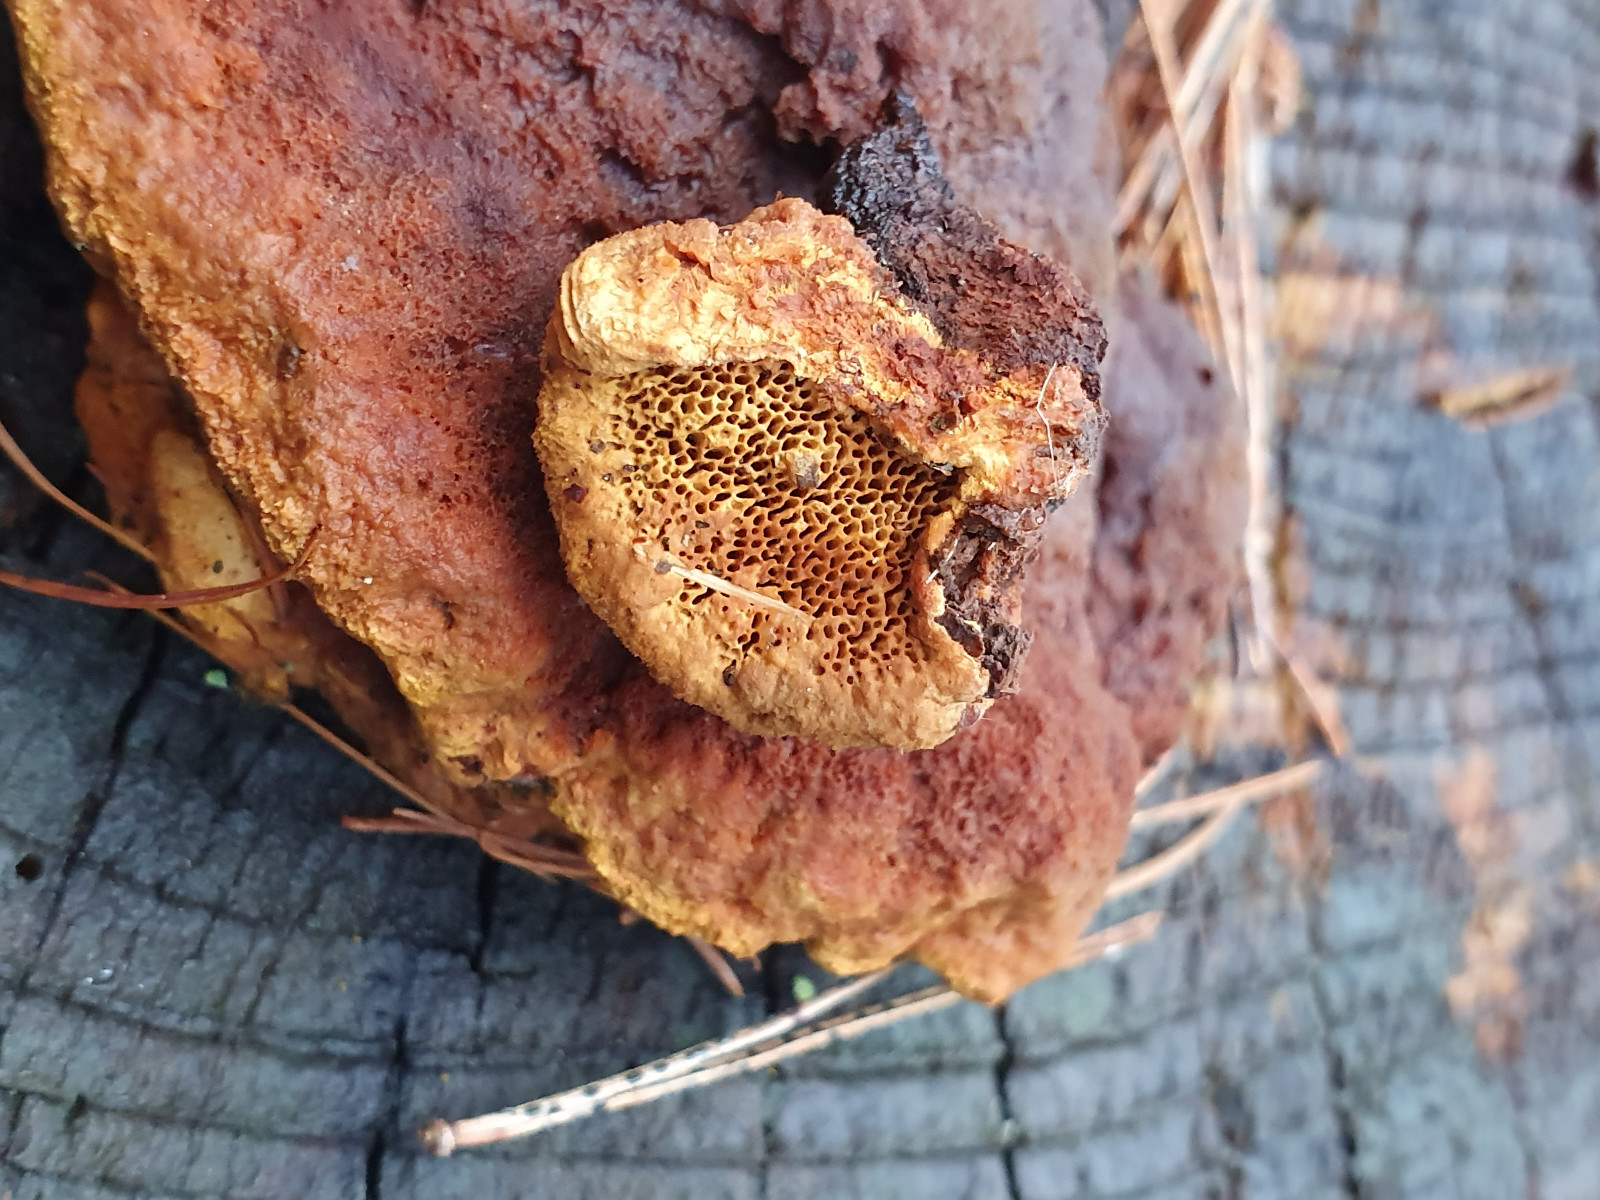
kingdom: Fungi
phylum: Basidiomycota
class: Agaricomycetes
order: Gloeophyllales
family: Gloeophyllaceae
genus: Gloeophyllum
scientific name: Gloeophyllum odoratum
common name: duftende korkhat
